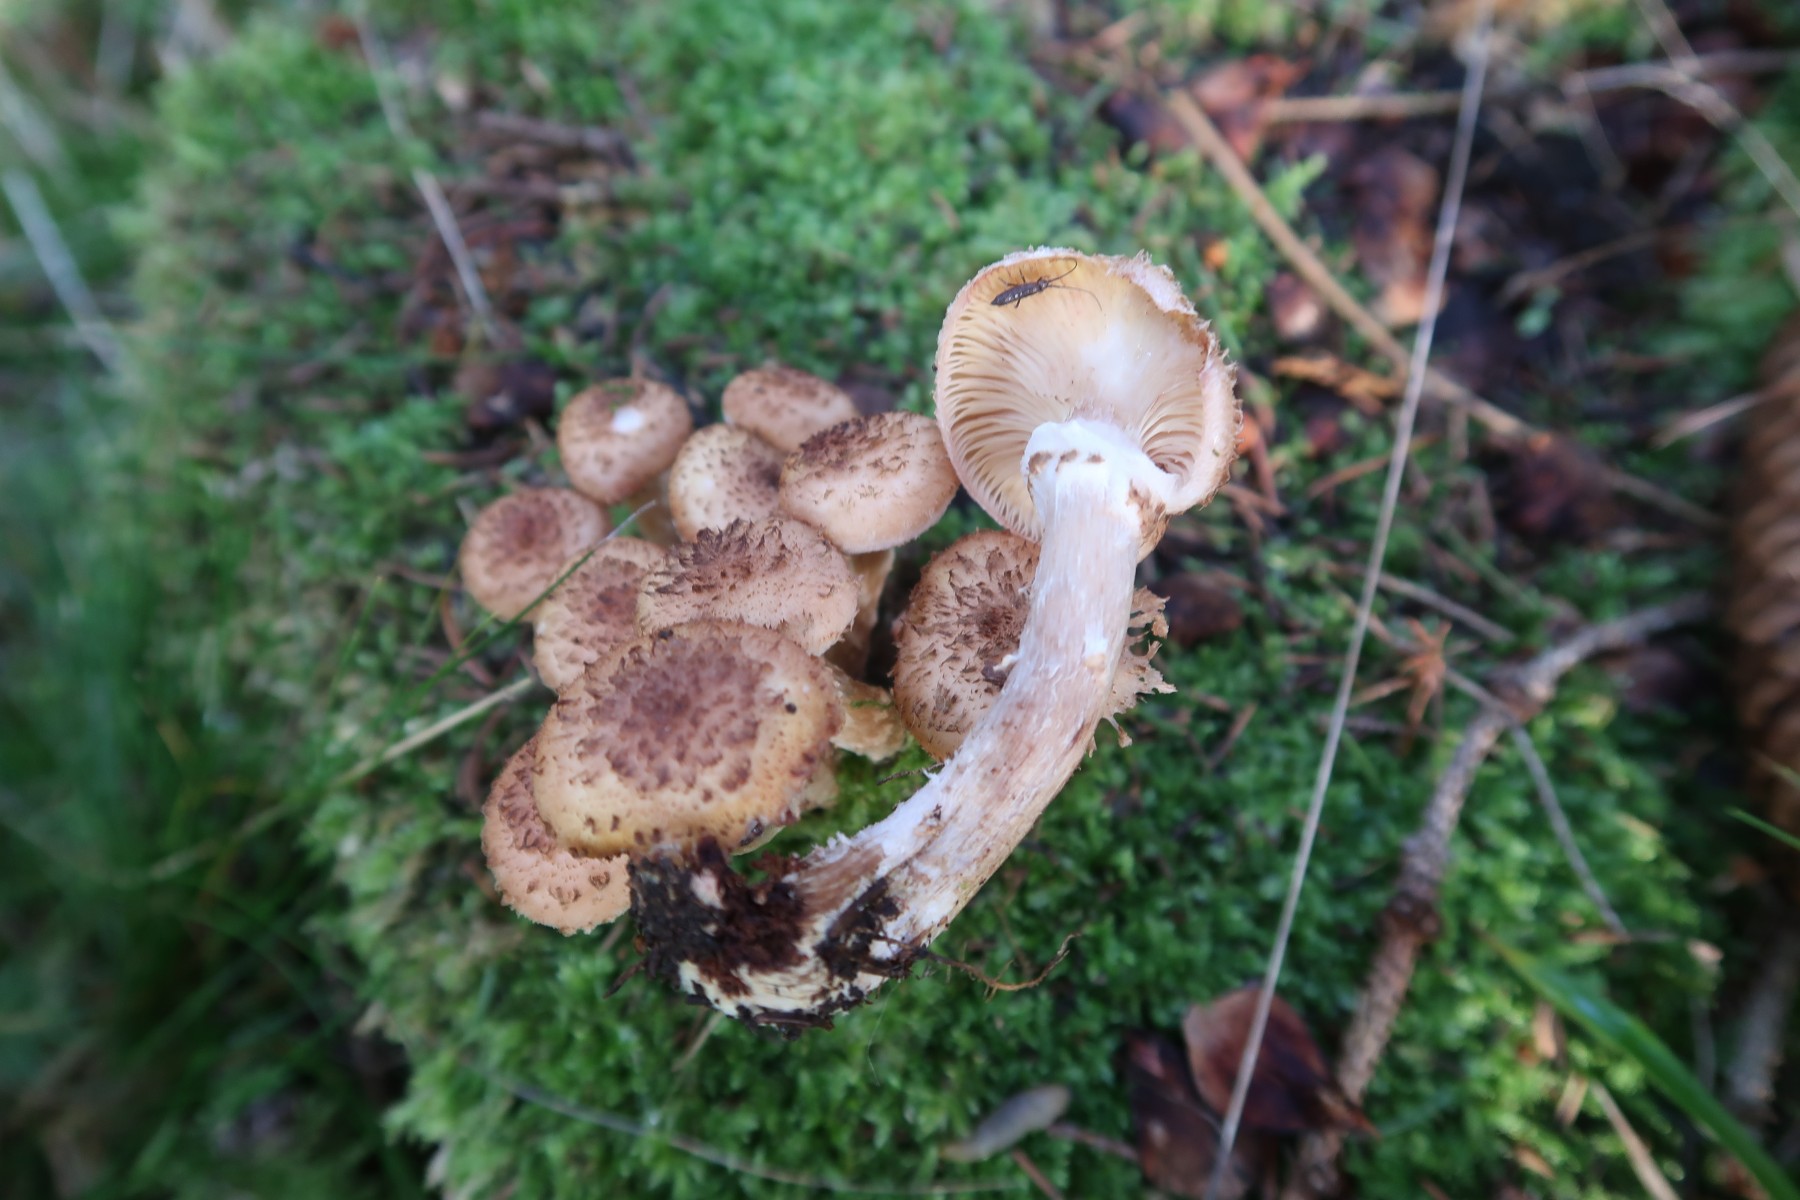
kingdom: Fungi
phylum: Basidiomycota
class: Agaricomycetes
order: Agaricales
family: Physalacriaceae
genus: Armillaria
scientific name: Armillaria ostoyae
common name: mørk honningsvamp
